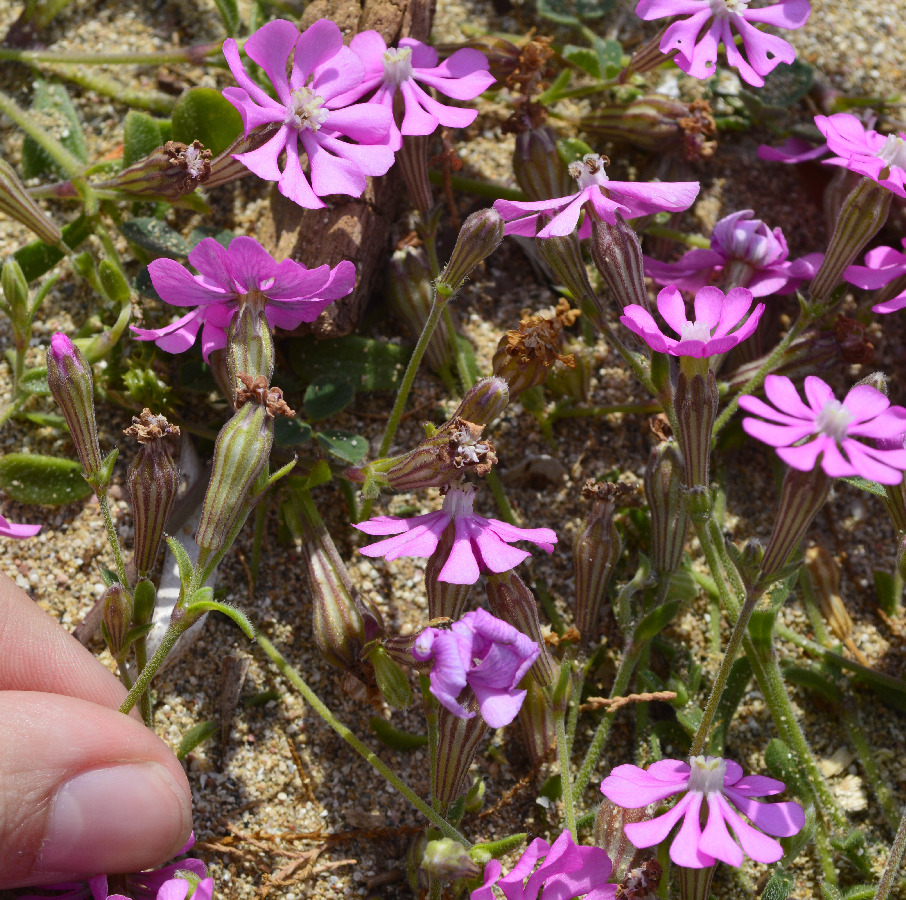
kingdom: Plantae
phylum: Tracheophyta
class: Magnoliopsida
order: Caryophyllales
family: Caryophyllaceae
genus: Silene
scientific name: Silene colorata
